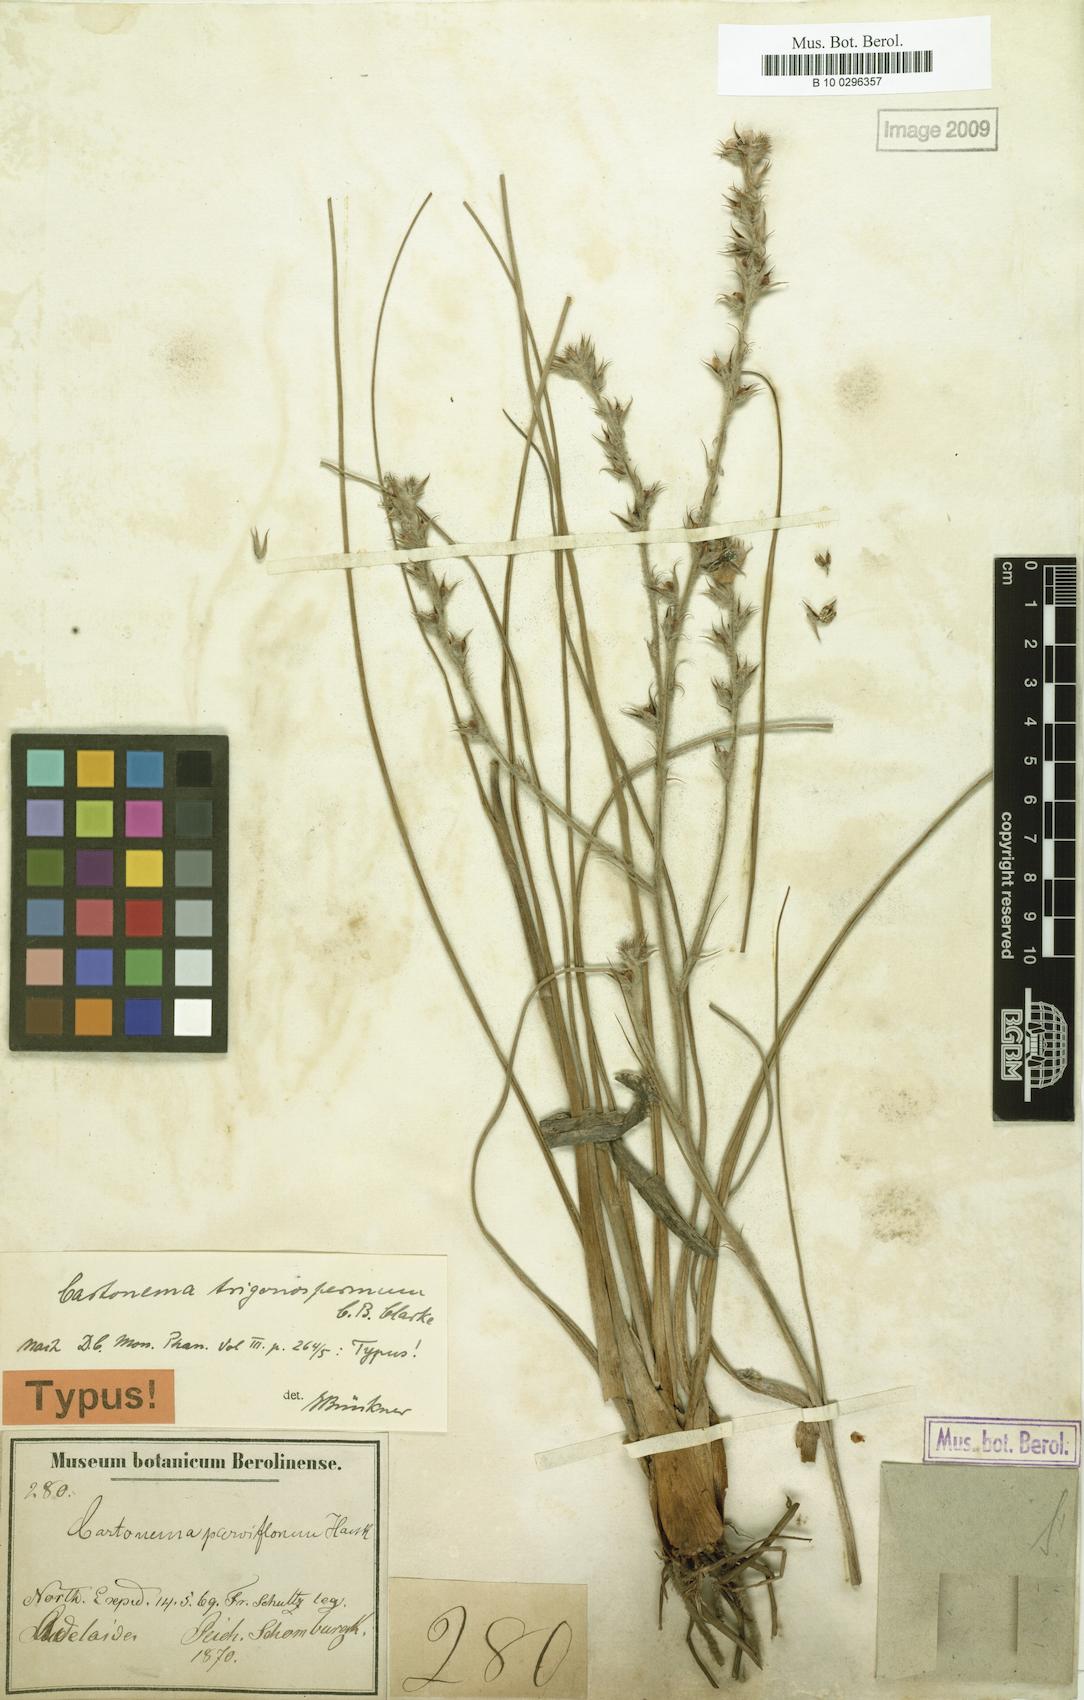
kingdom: Plantae
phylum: Tracheophyta
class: Liliopsida
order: Commelinales
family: Commelinaceae
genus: Cartonema
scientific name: Cartonema trigonospermum
